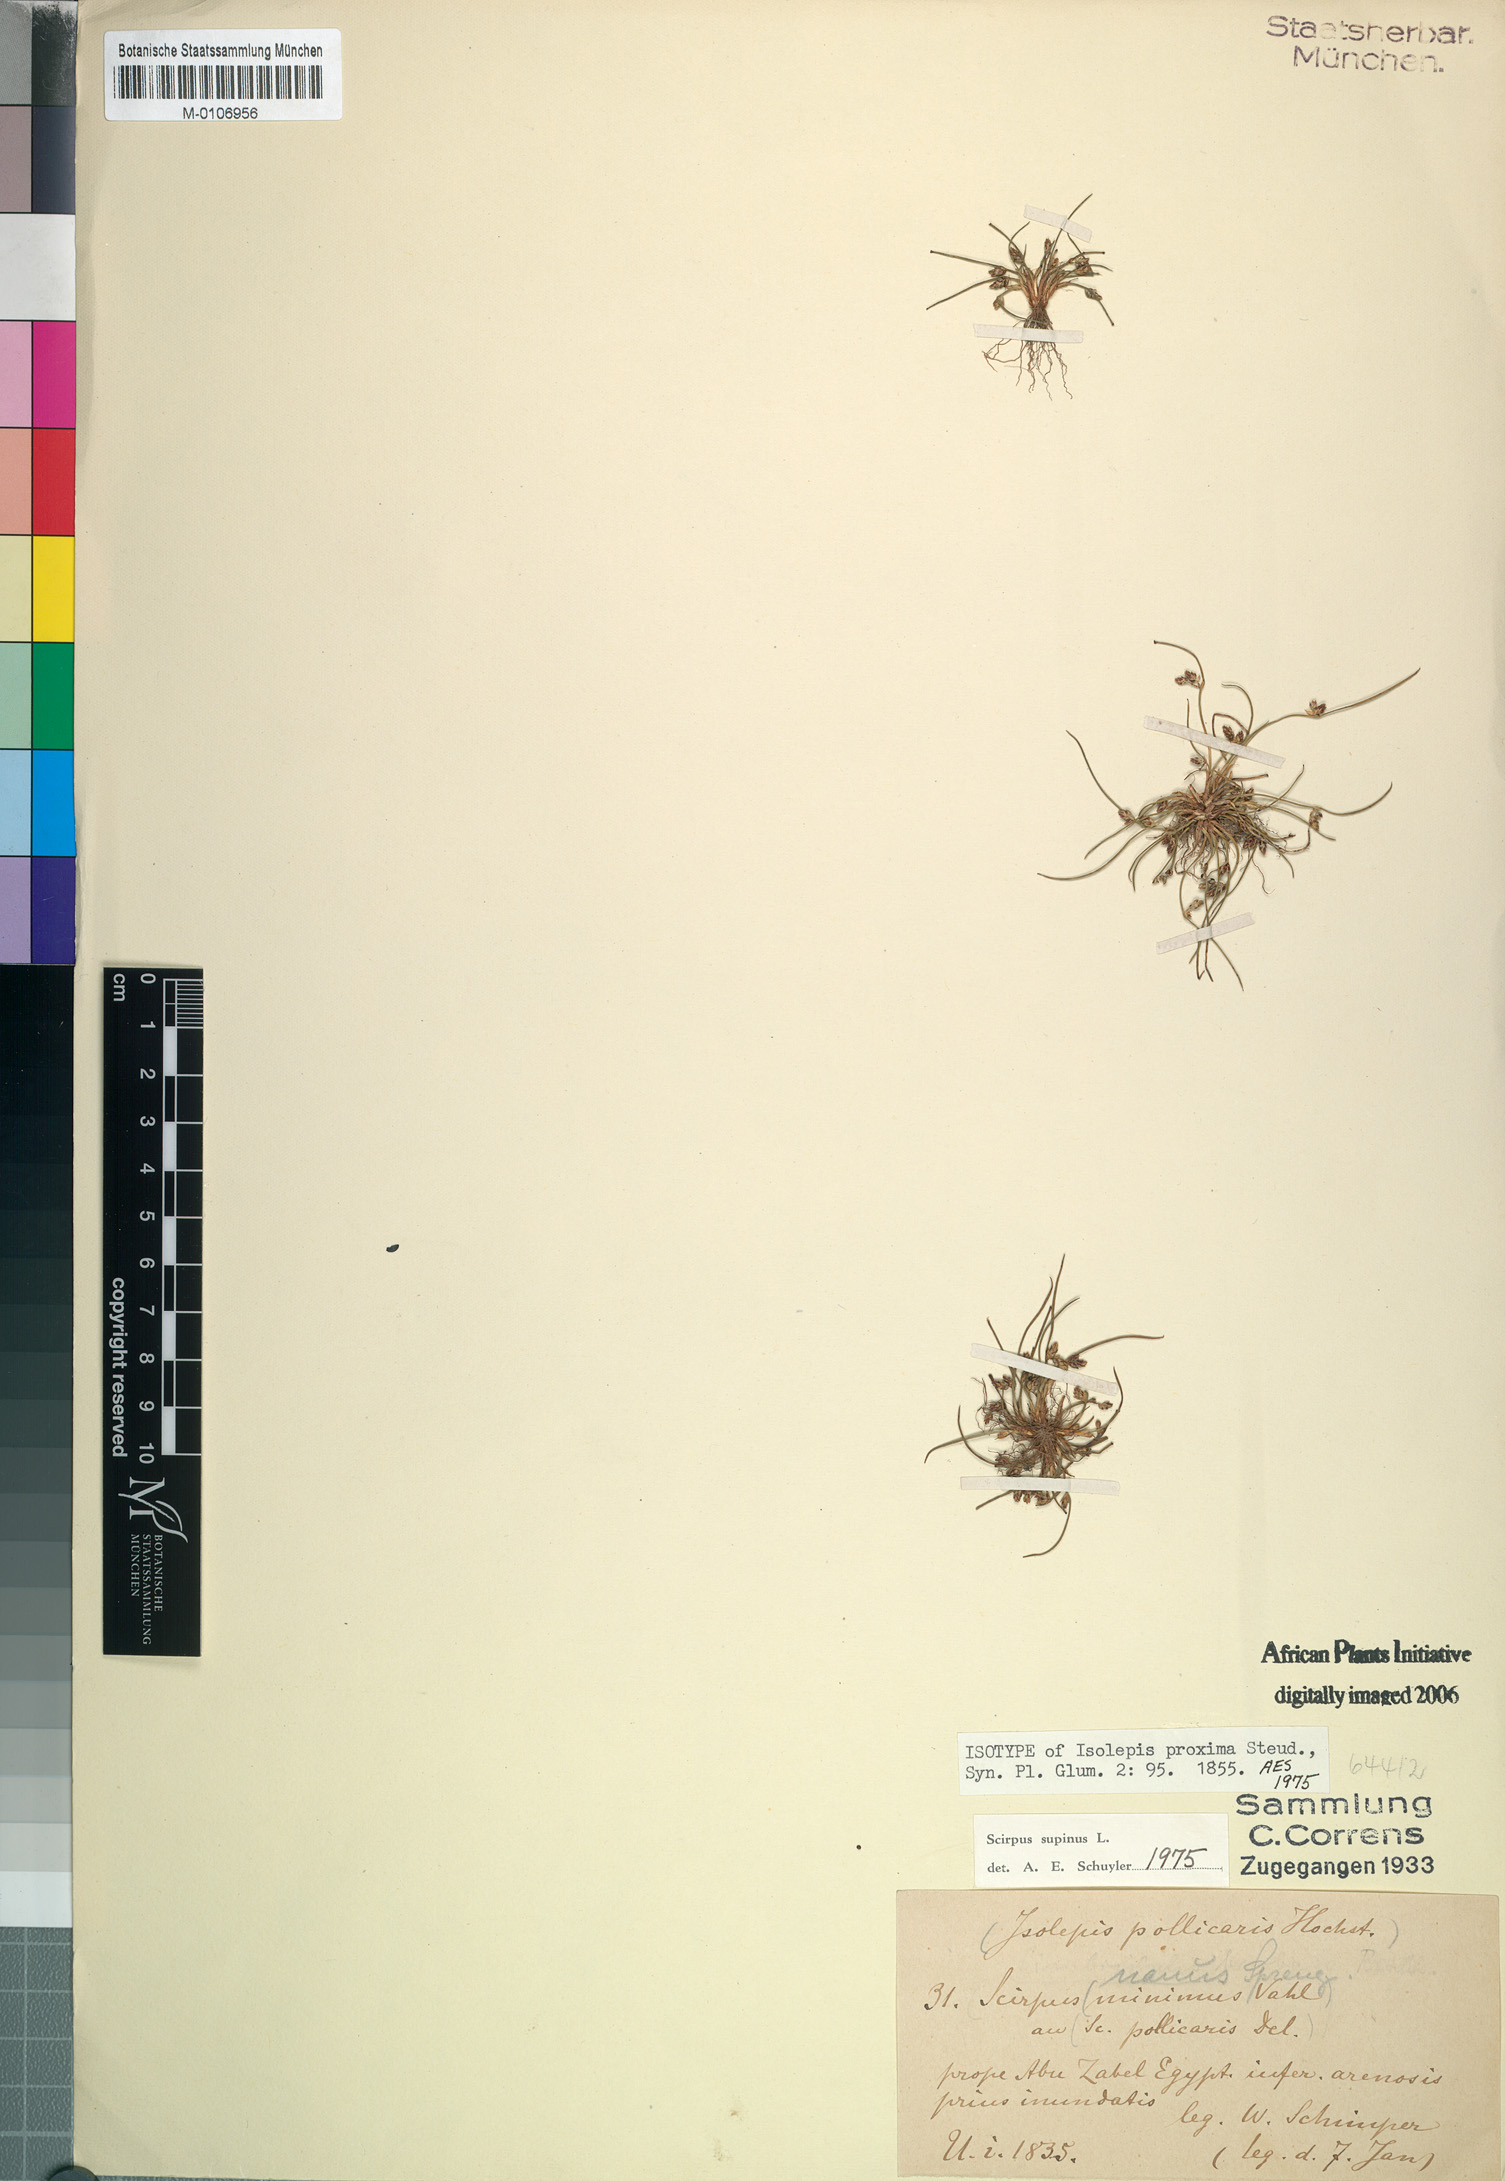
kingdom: Plantae
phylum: Tracheophyta
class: Liliopsida
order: Poales
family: Cyperaceae
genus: Schoenoplectiella
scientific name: Schoenoplectiella supina
